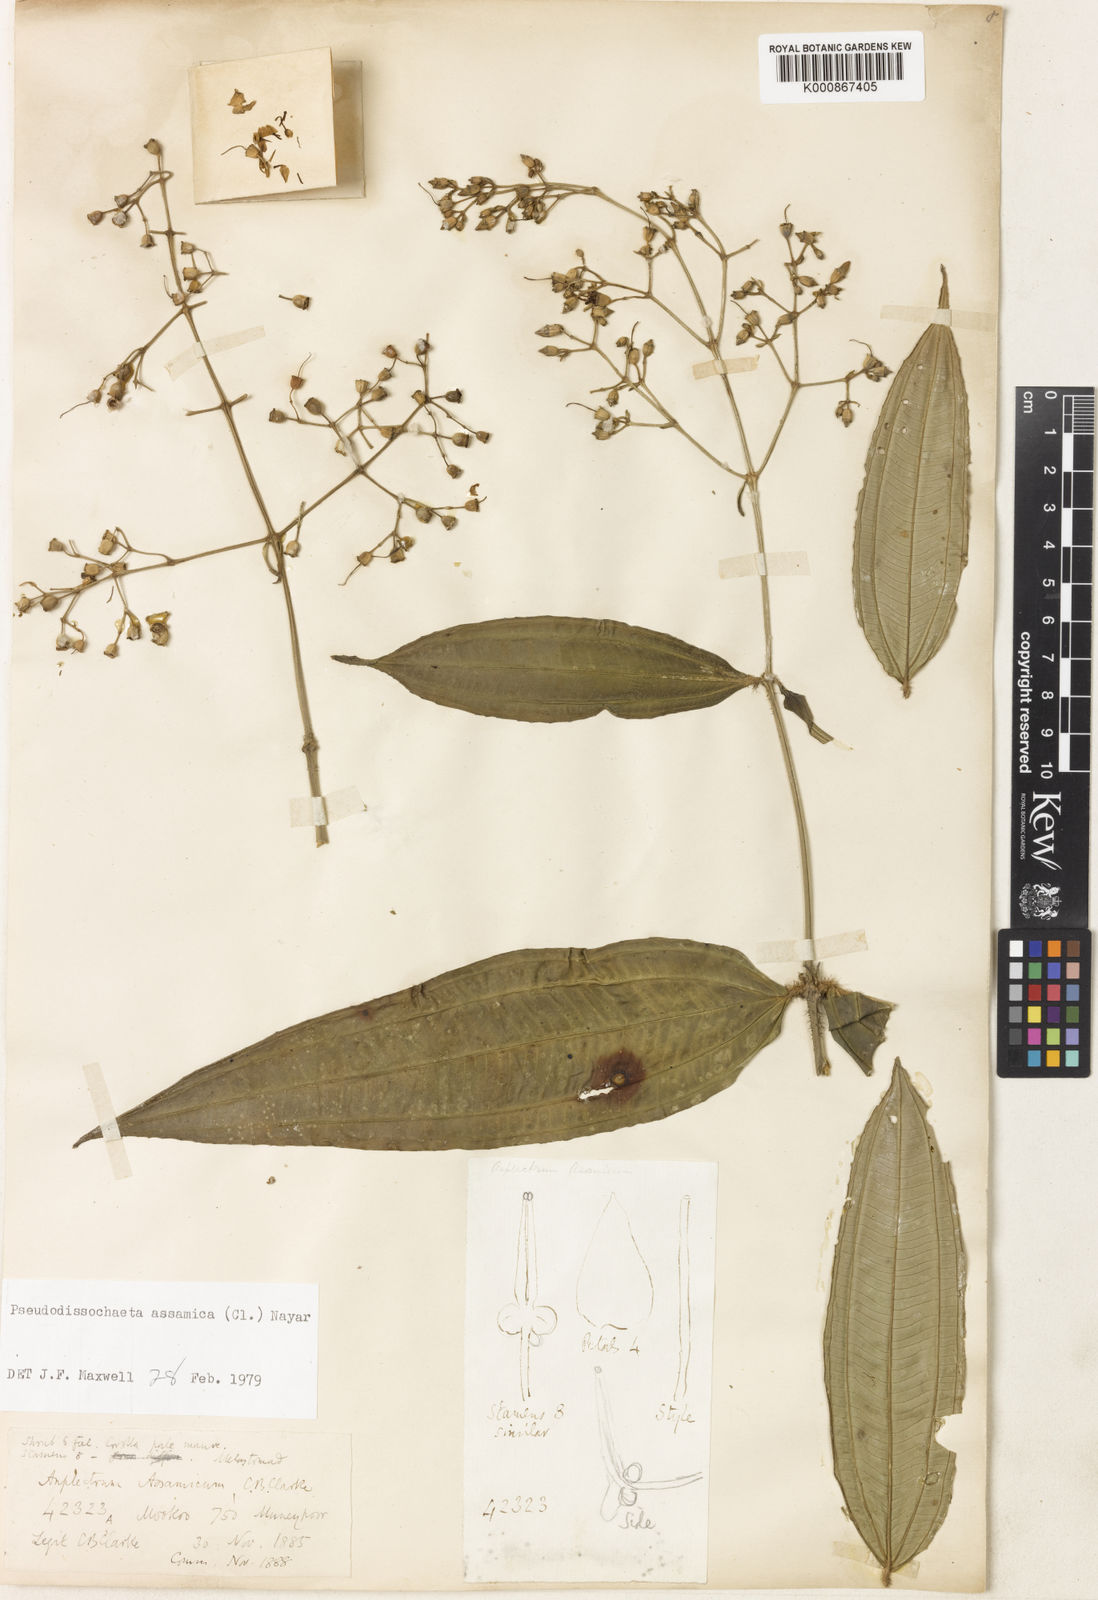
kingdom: Plantae
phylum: Tracheophyta
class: Magnoliopsida
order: Myrtales
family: Melastomataceae
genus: Pseudodissochaeta
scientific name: Pseudodissochaeta assamica
